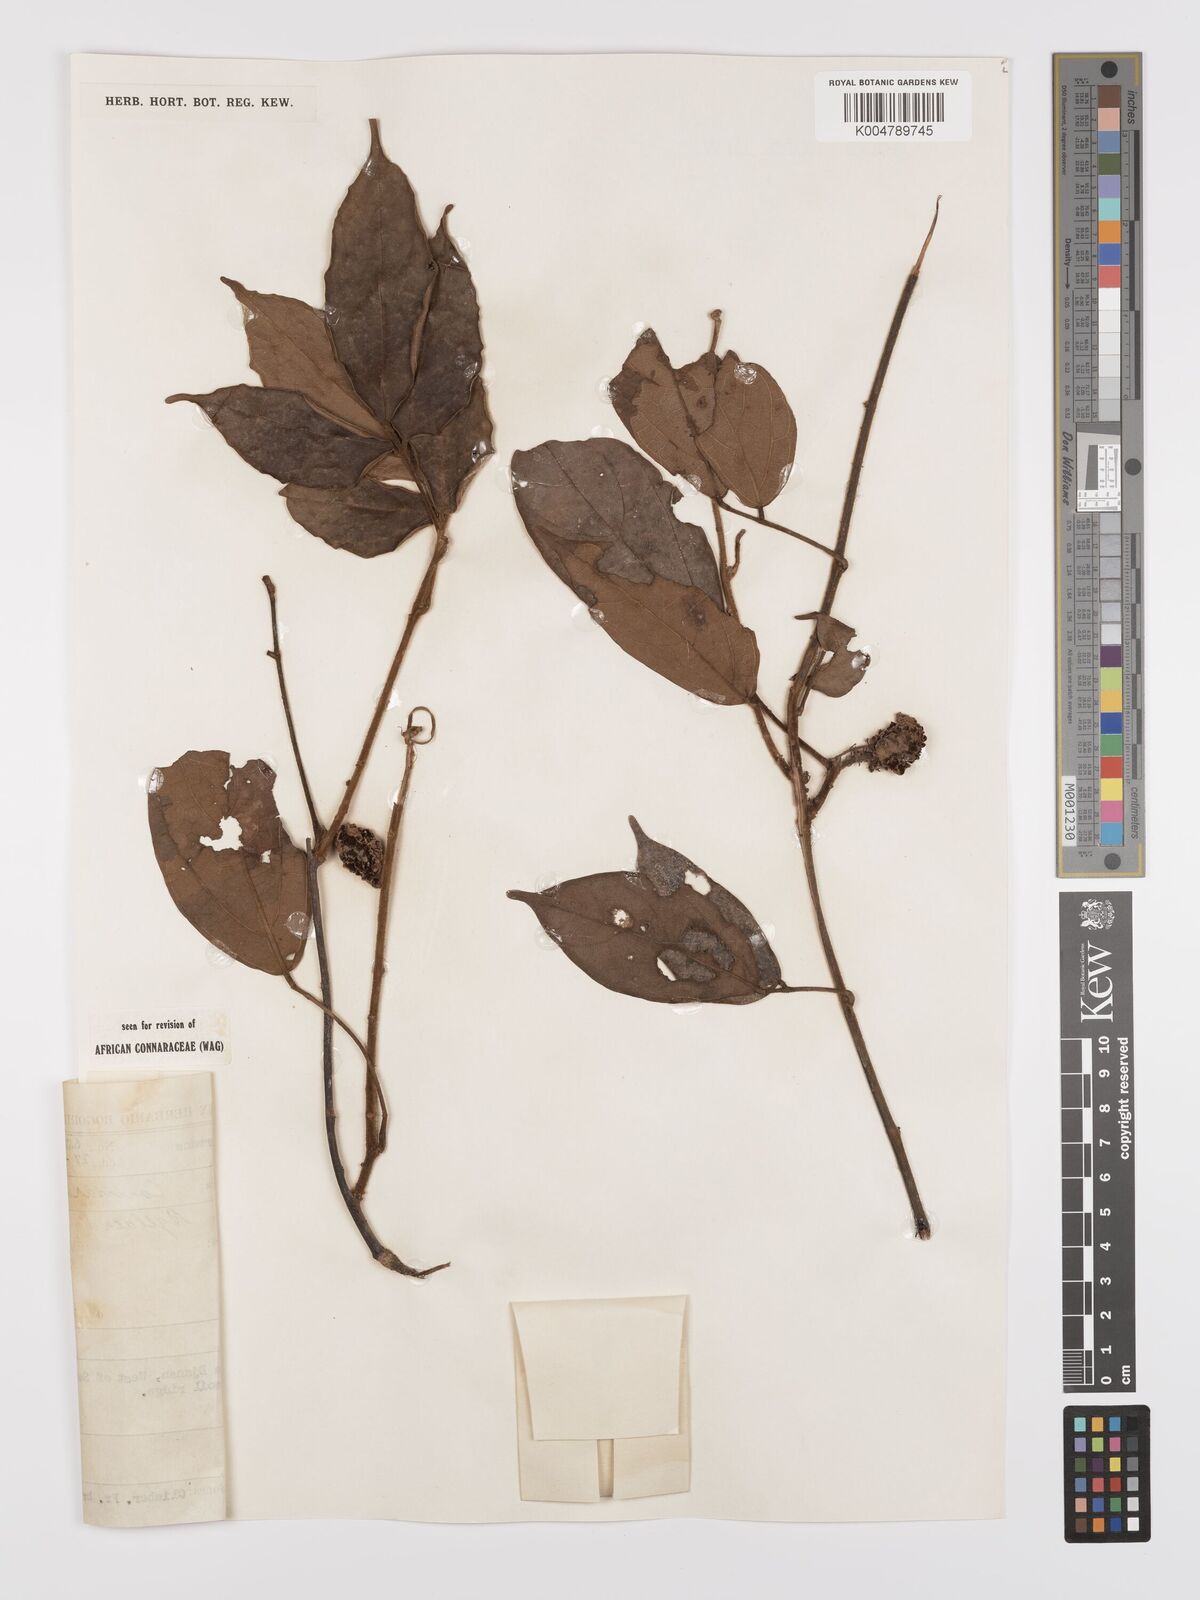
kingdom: Plantae
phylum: Tracheophyta
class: Magnoliopsida
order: Oxalidales
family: Connaraceae
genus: Agelaea
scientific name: Agelaea borneensis
